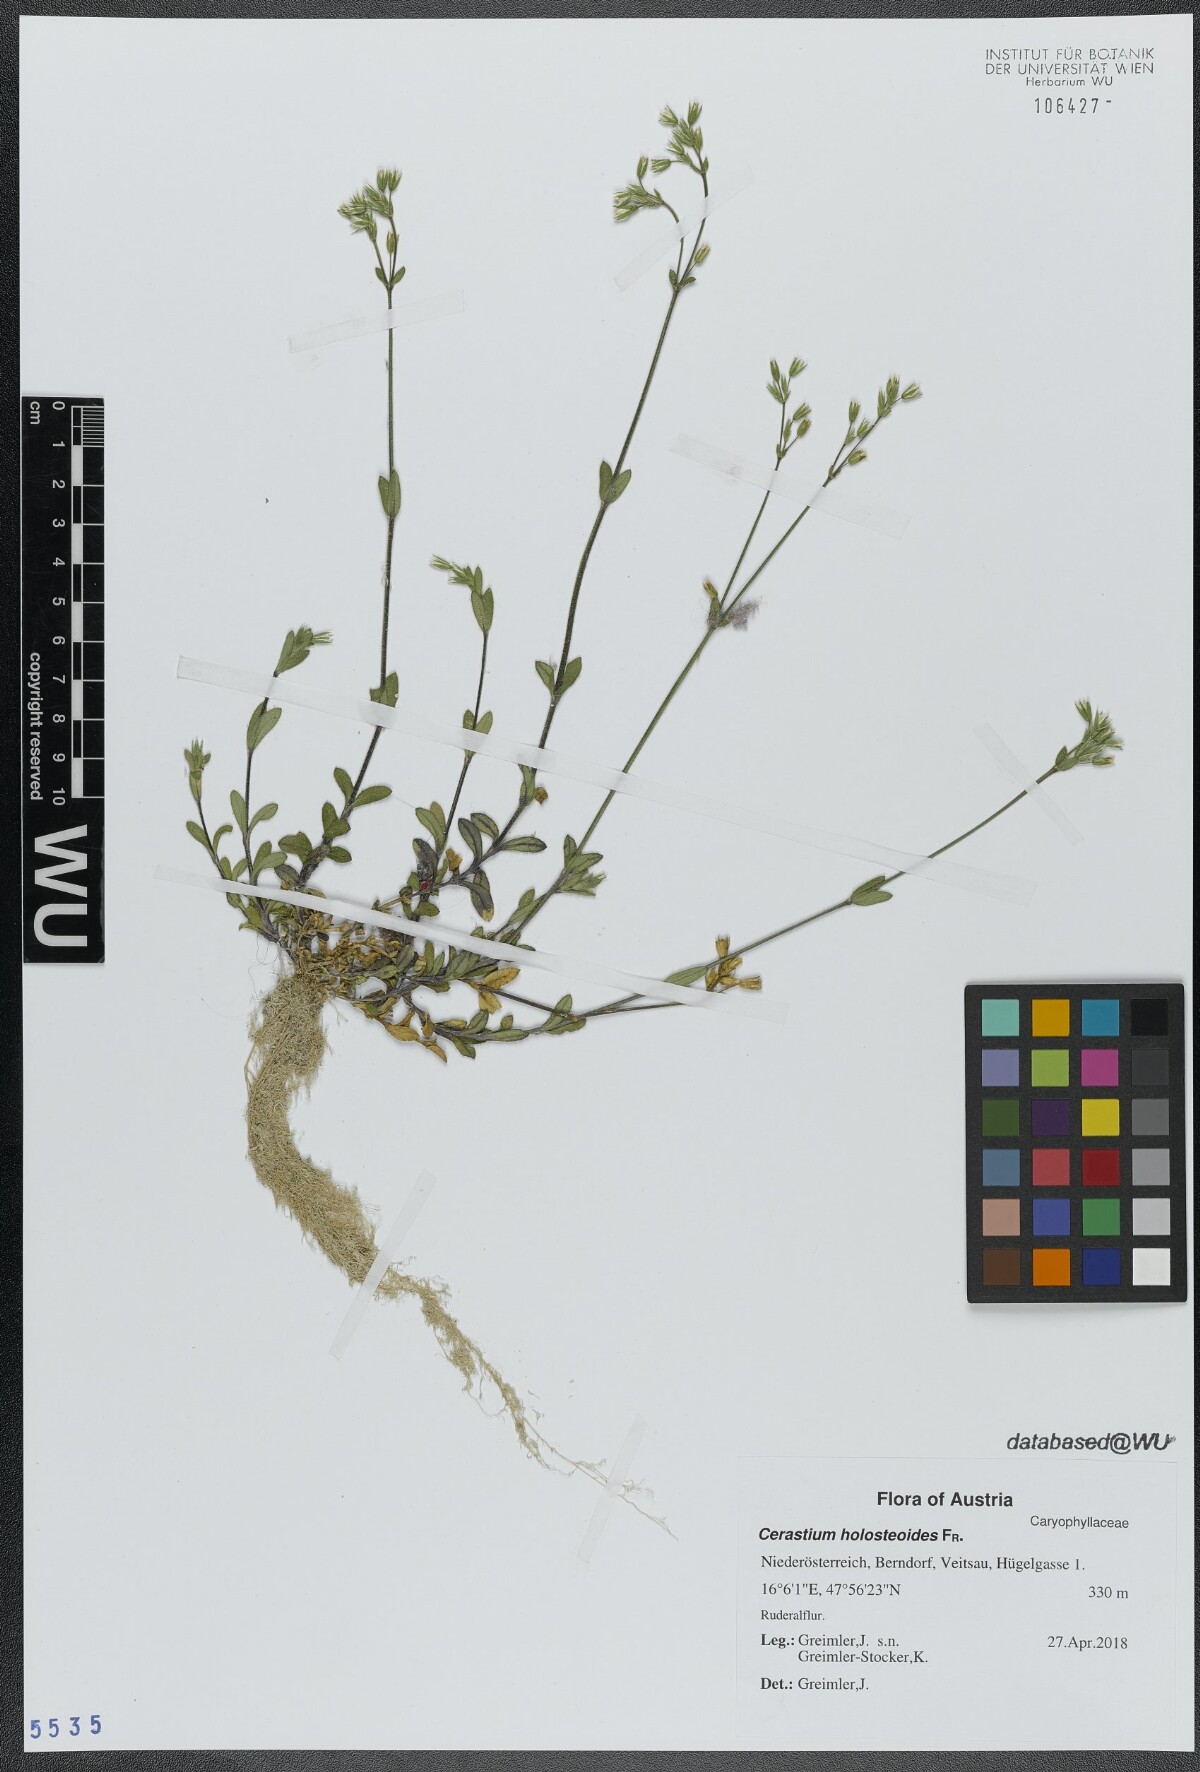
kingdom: Plantae
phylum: Tracheophyta
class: Magnoliopsida
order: Caryophyllales
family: Caryophyllaceae
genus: Cerastium
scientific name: Cerastium holosteoides
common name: Big chickweed
